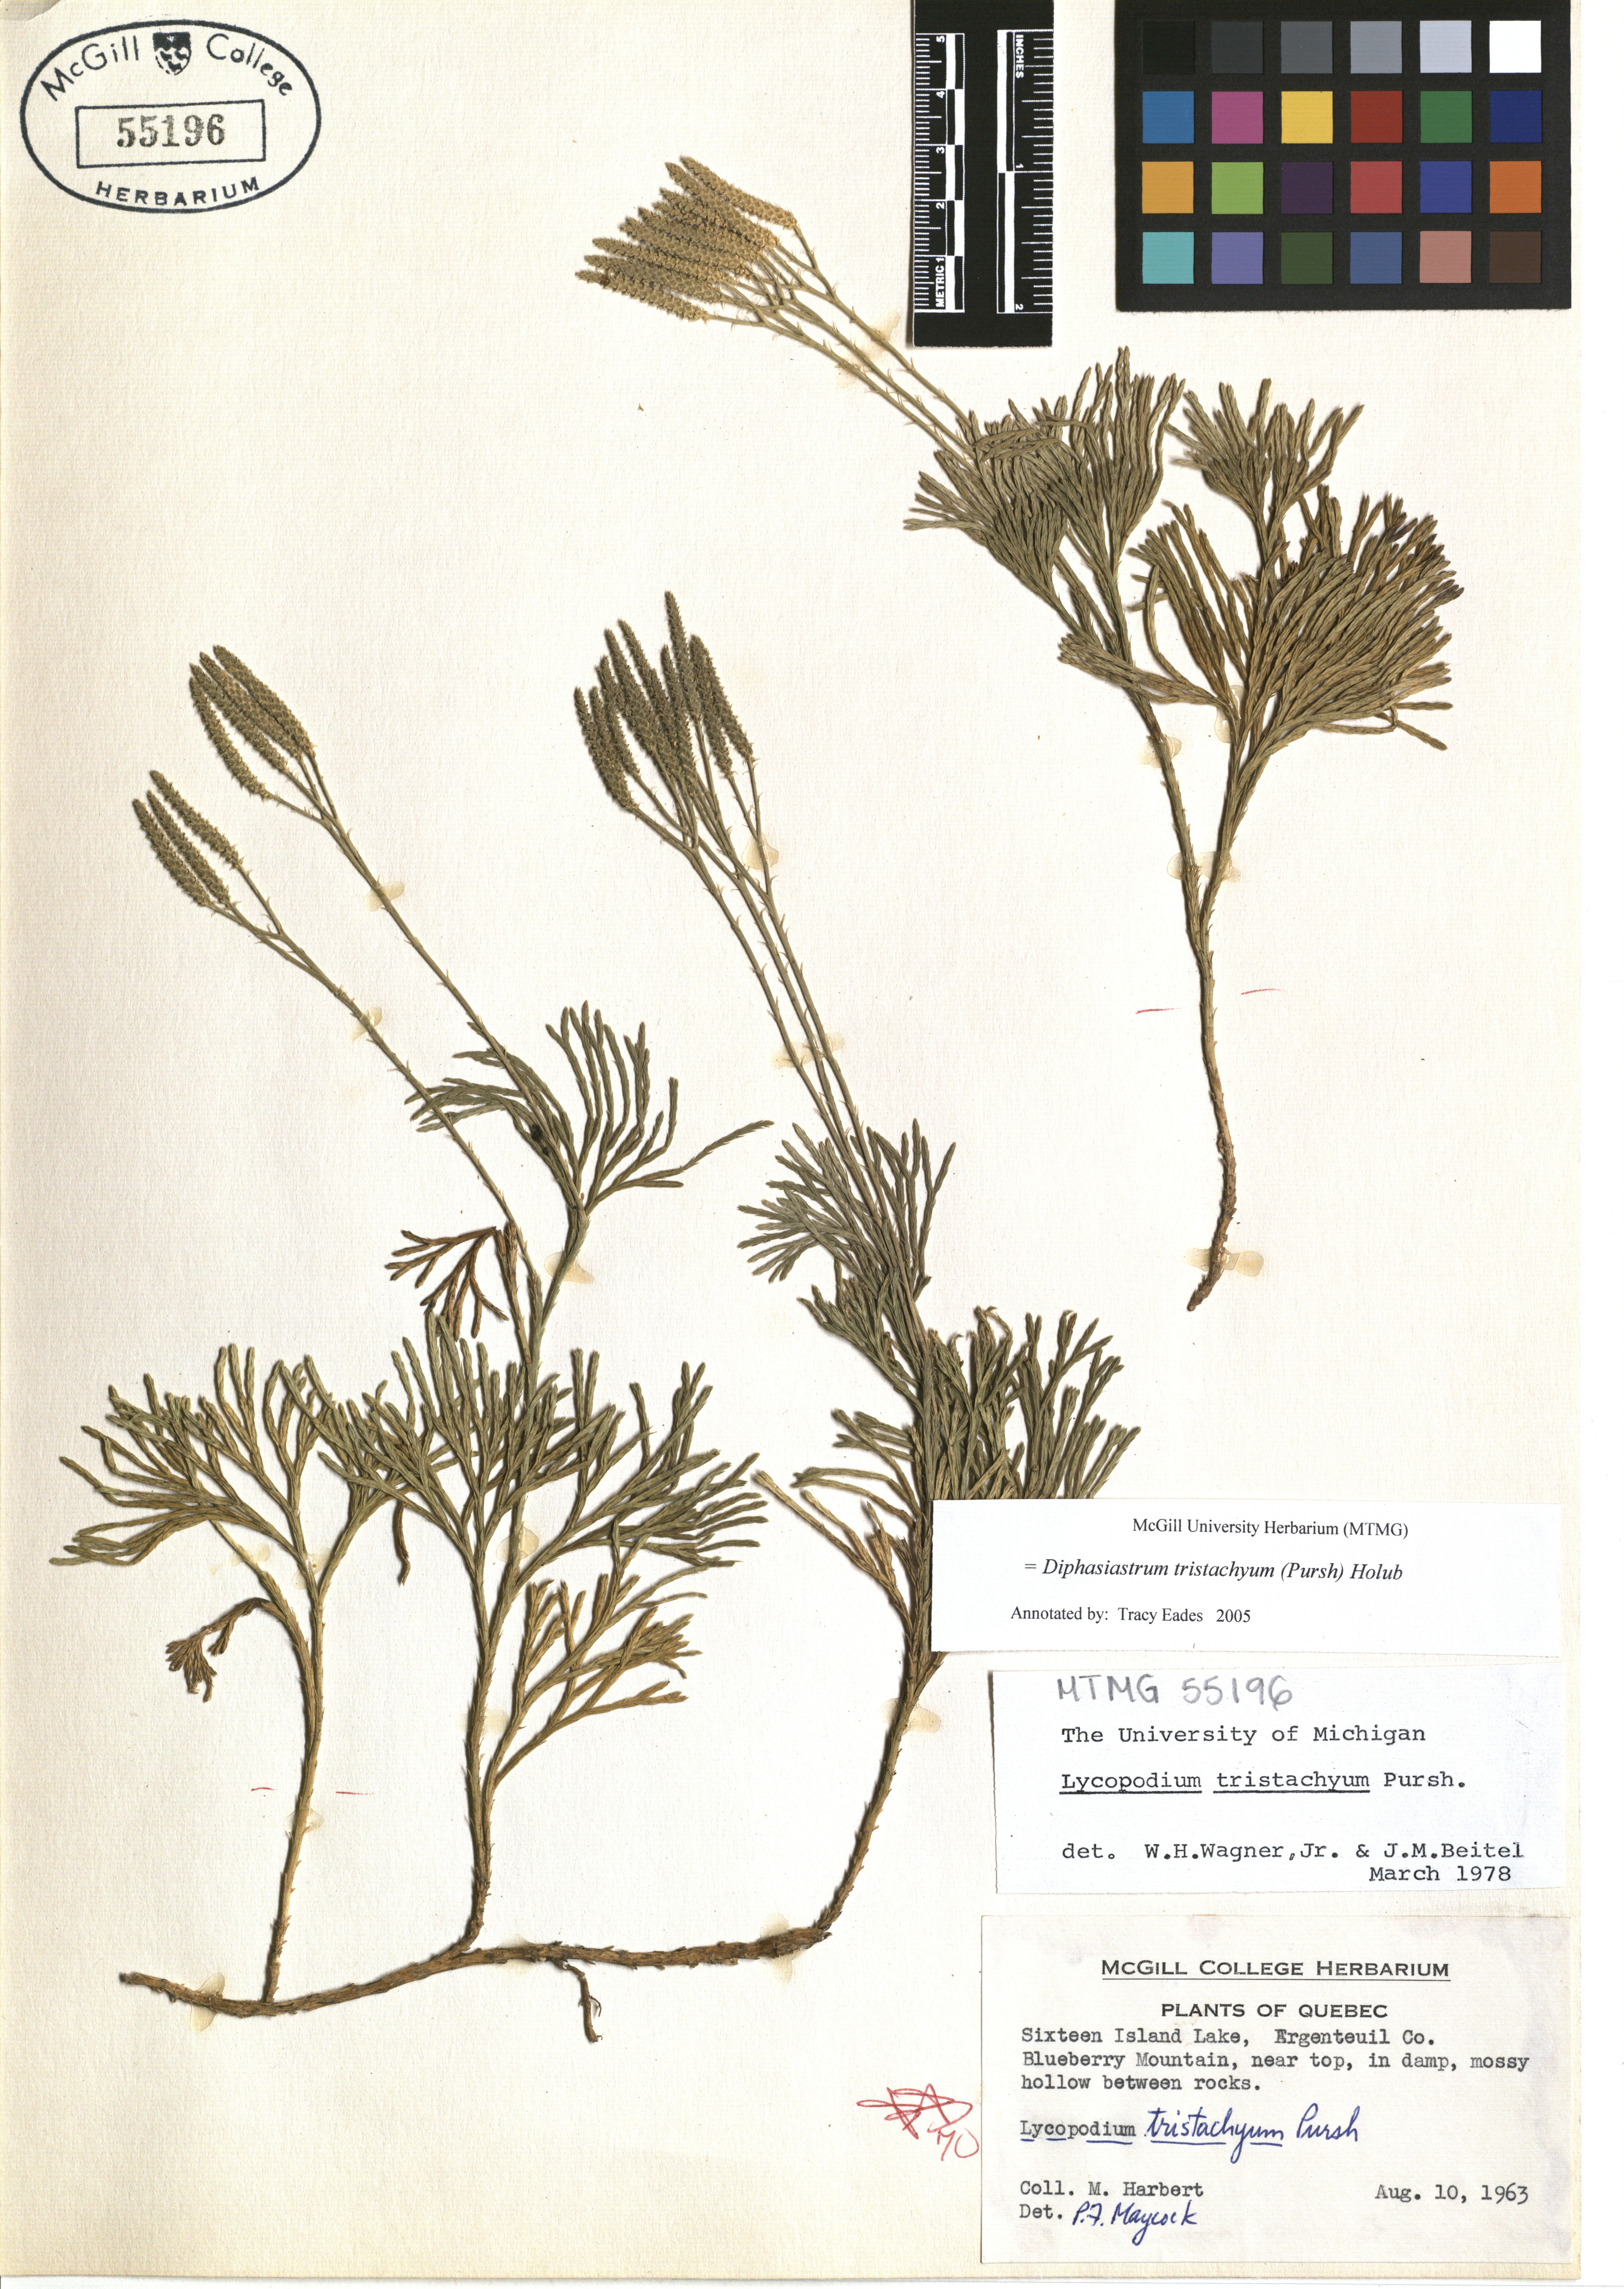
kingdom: Plantae
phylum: Tracheophyta
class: Lycopodiopsida
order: Lycopodiales
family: Lycopodiaceae
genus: Diphasiastrum
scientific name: Diphasiastrum tristachyum
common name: Blue ground-cedar
